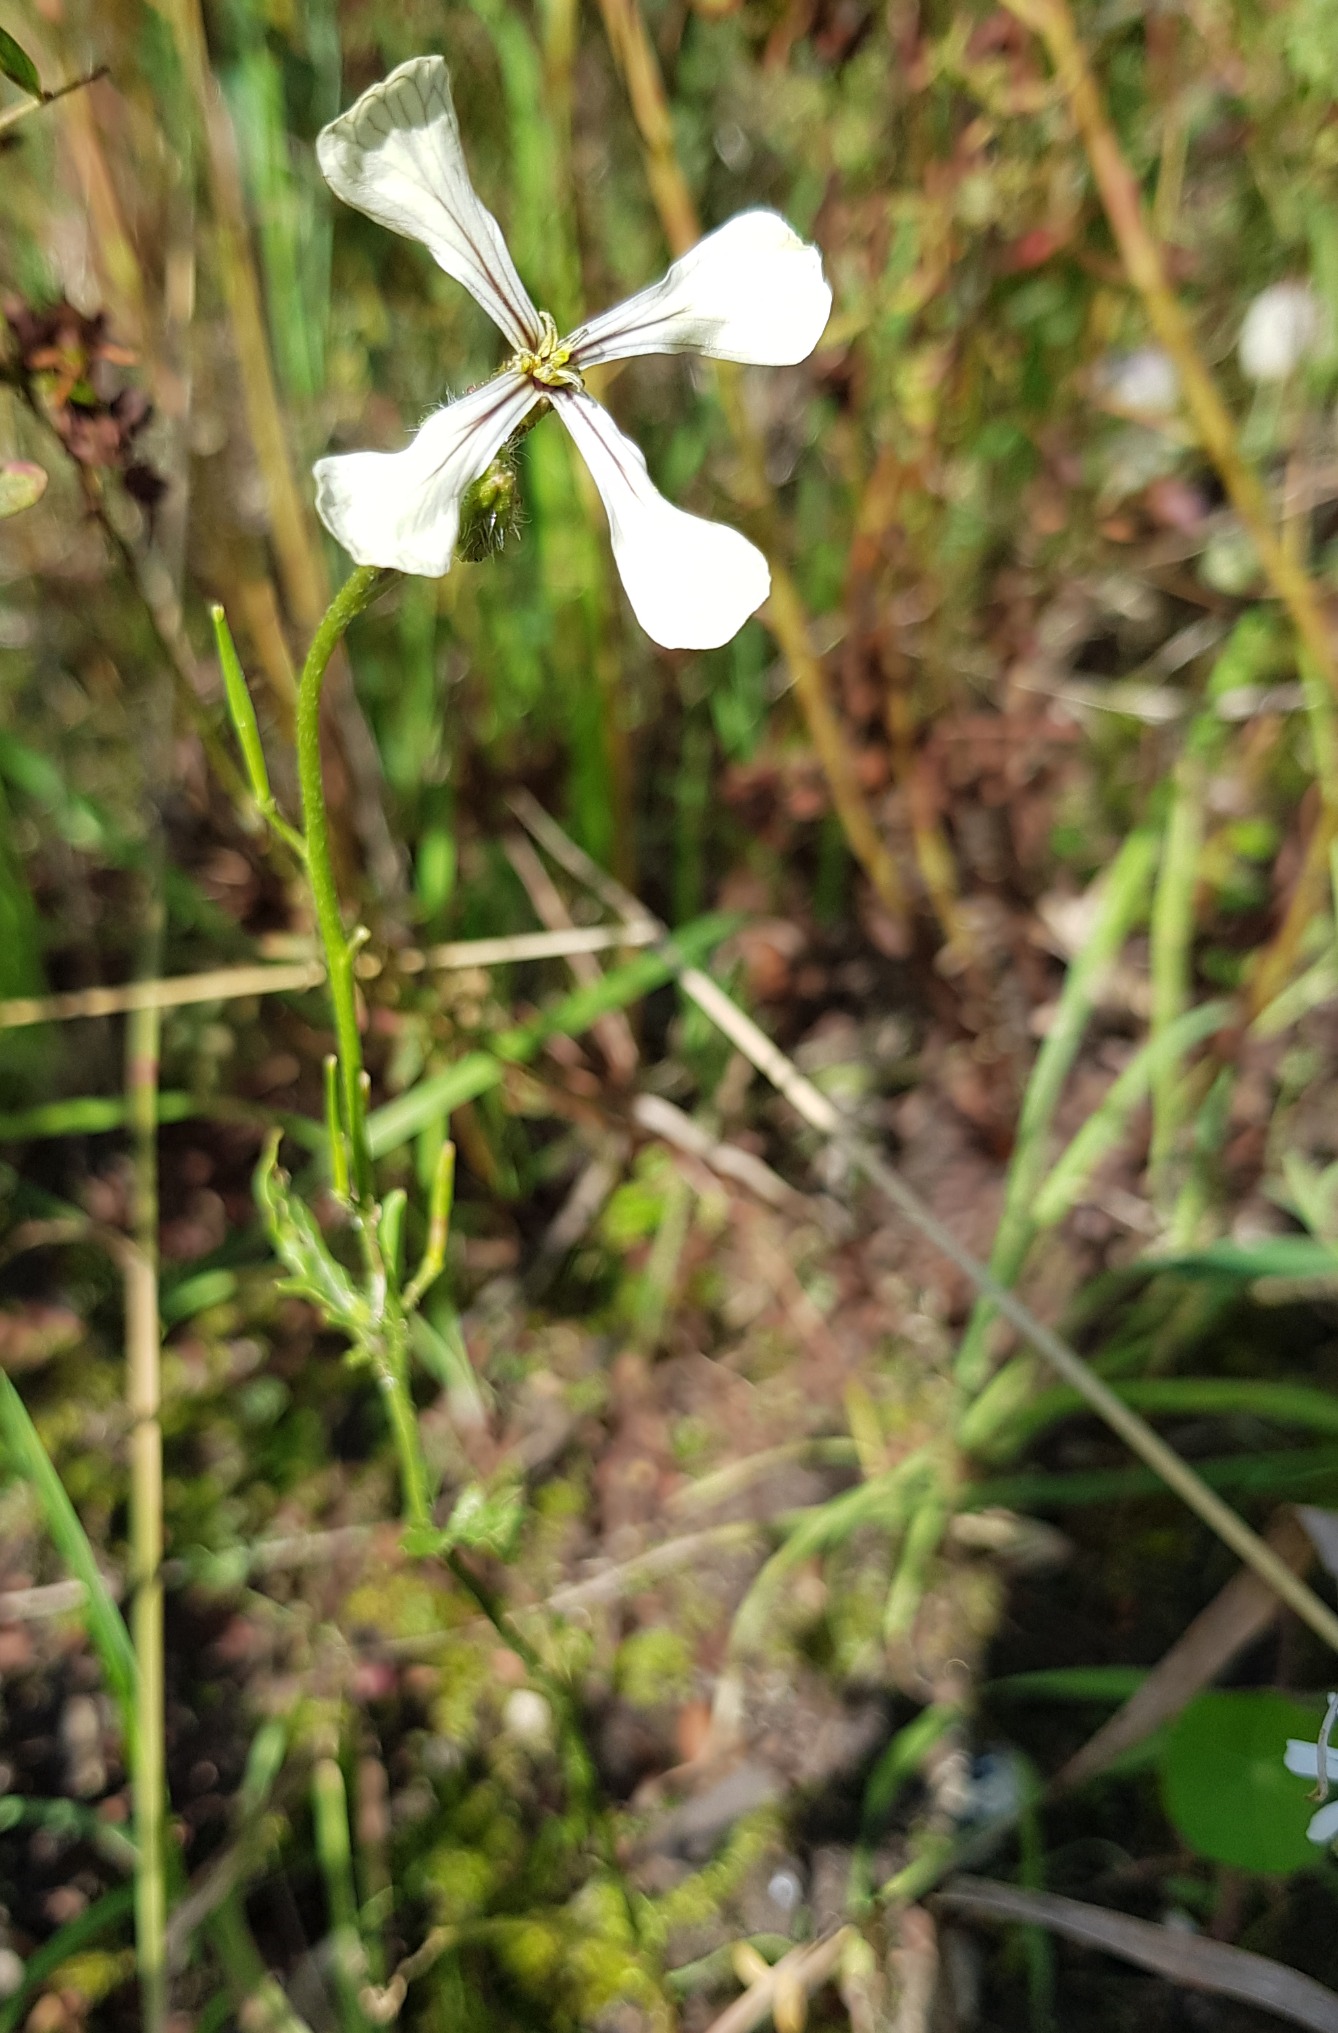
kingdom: Plantae
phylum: Tracheophyta
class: Magnoliopsida
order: Brassicales
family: Brassicaceae
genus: Eruca
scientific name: Eruca vesicaria
